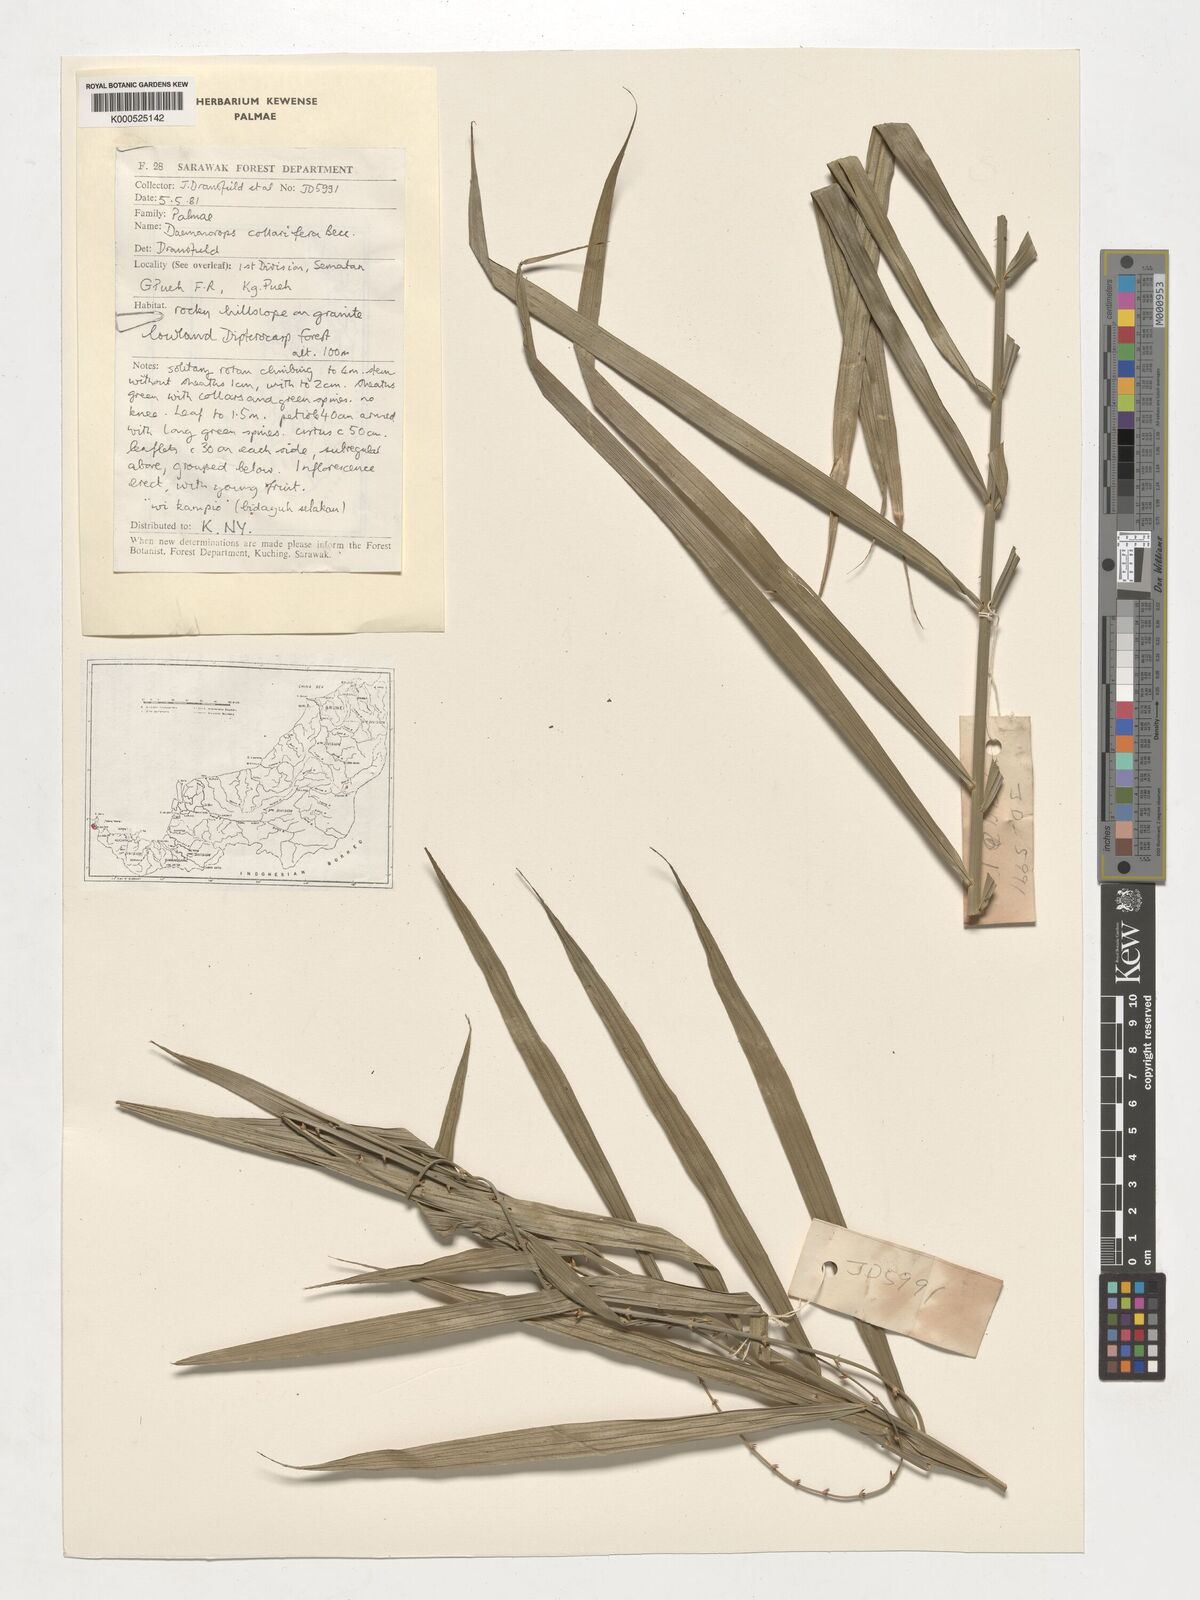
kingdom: Plantae
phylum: Tracheophyta
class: Liliopsida
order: Arecales
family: Arecaceae
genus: Calamus
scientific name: Calamus geniculatus
